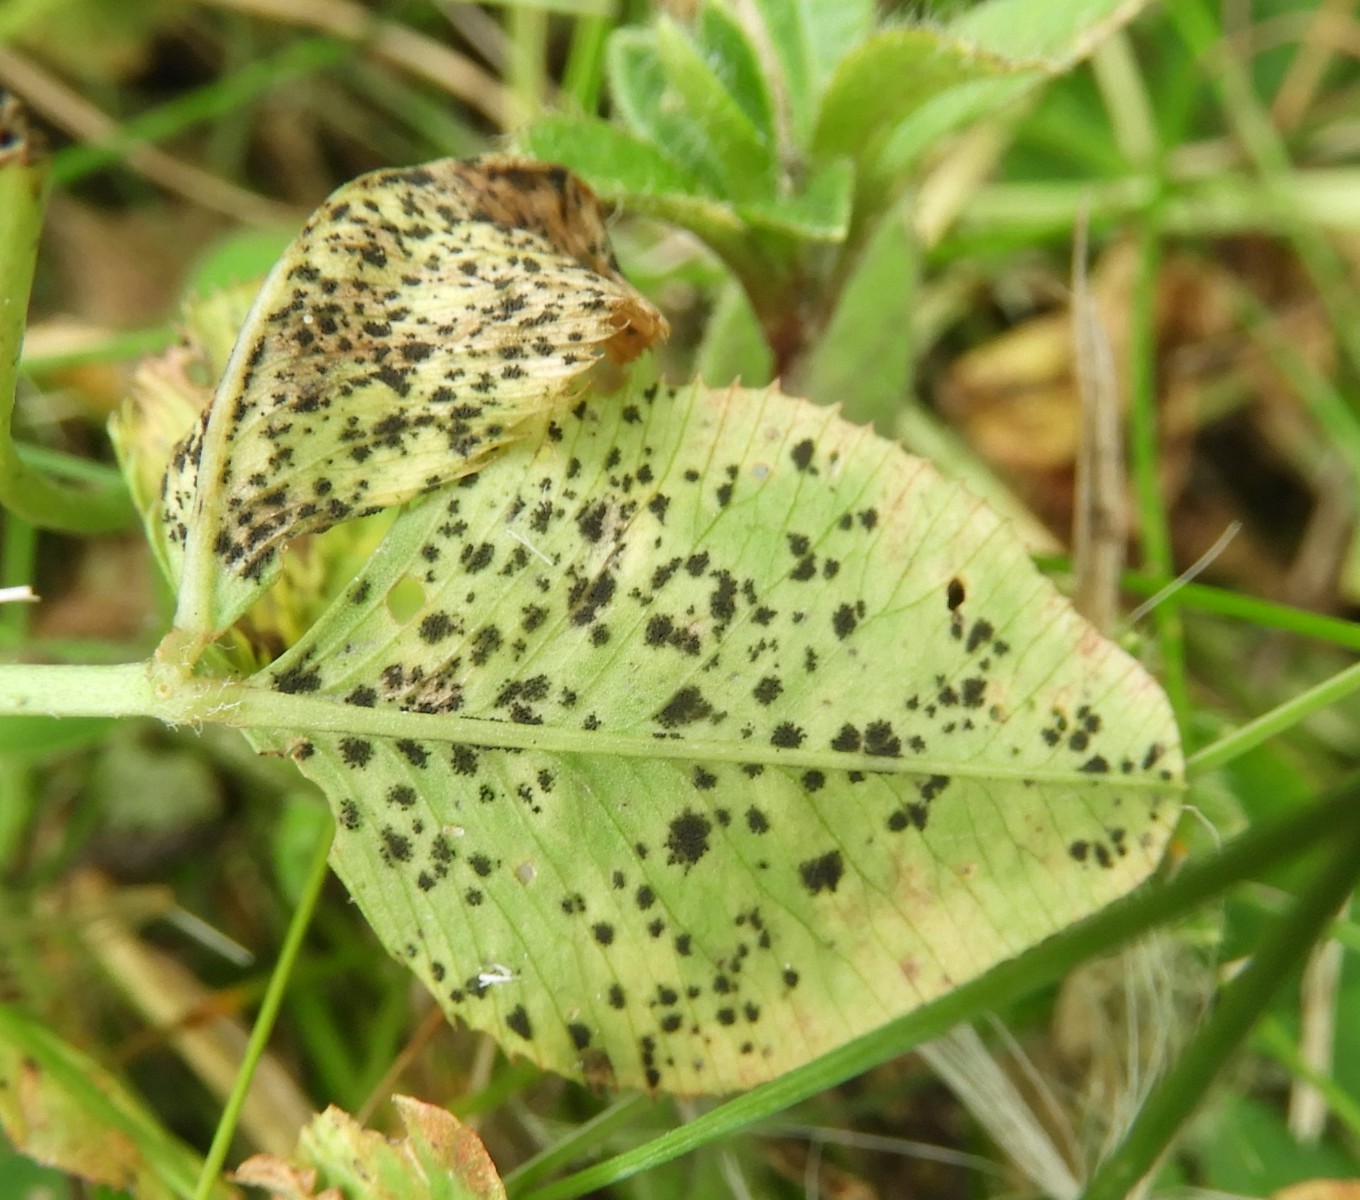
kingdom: Fungi
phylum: Ascomycota
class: Dothideomycetes
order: Mycosphaerellales
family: Mycosphaerellaceae
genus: Polythrincium
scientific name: Polythrincium trifolii
